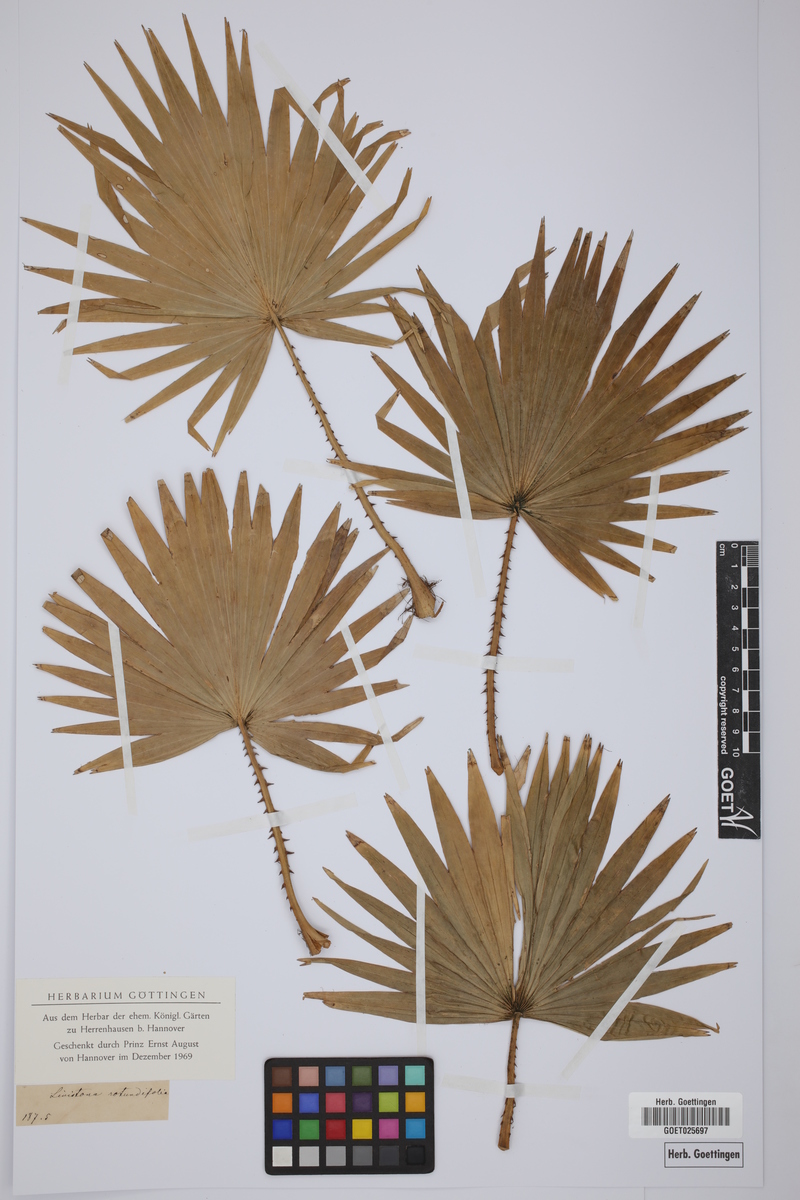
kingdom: Plantae
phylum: Tracheophyta
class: Liliopsida
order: Arecales
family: Arecaceae
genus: Saribus
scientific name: Saribus rotundifolius
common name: Palm
